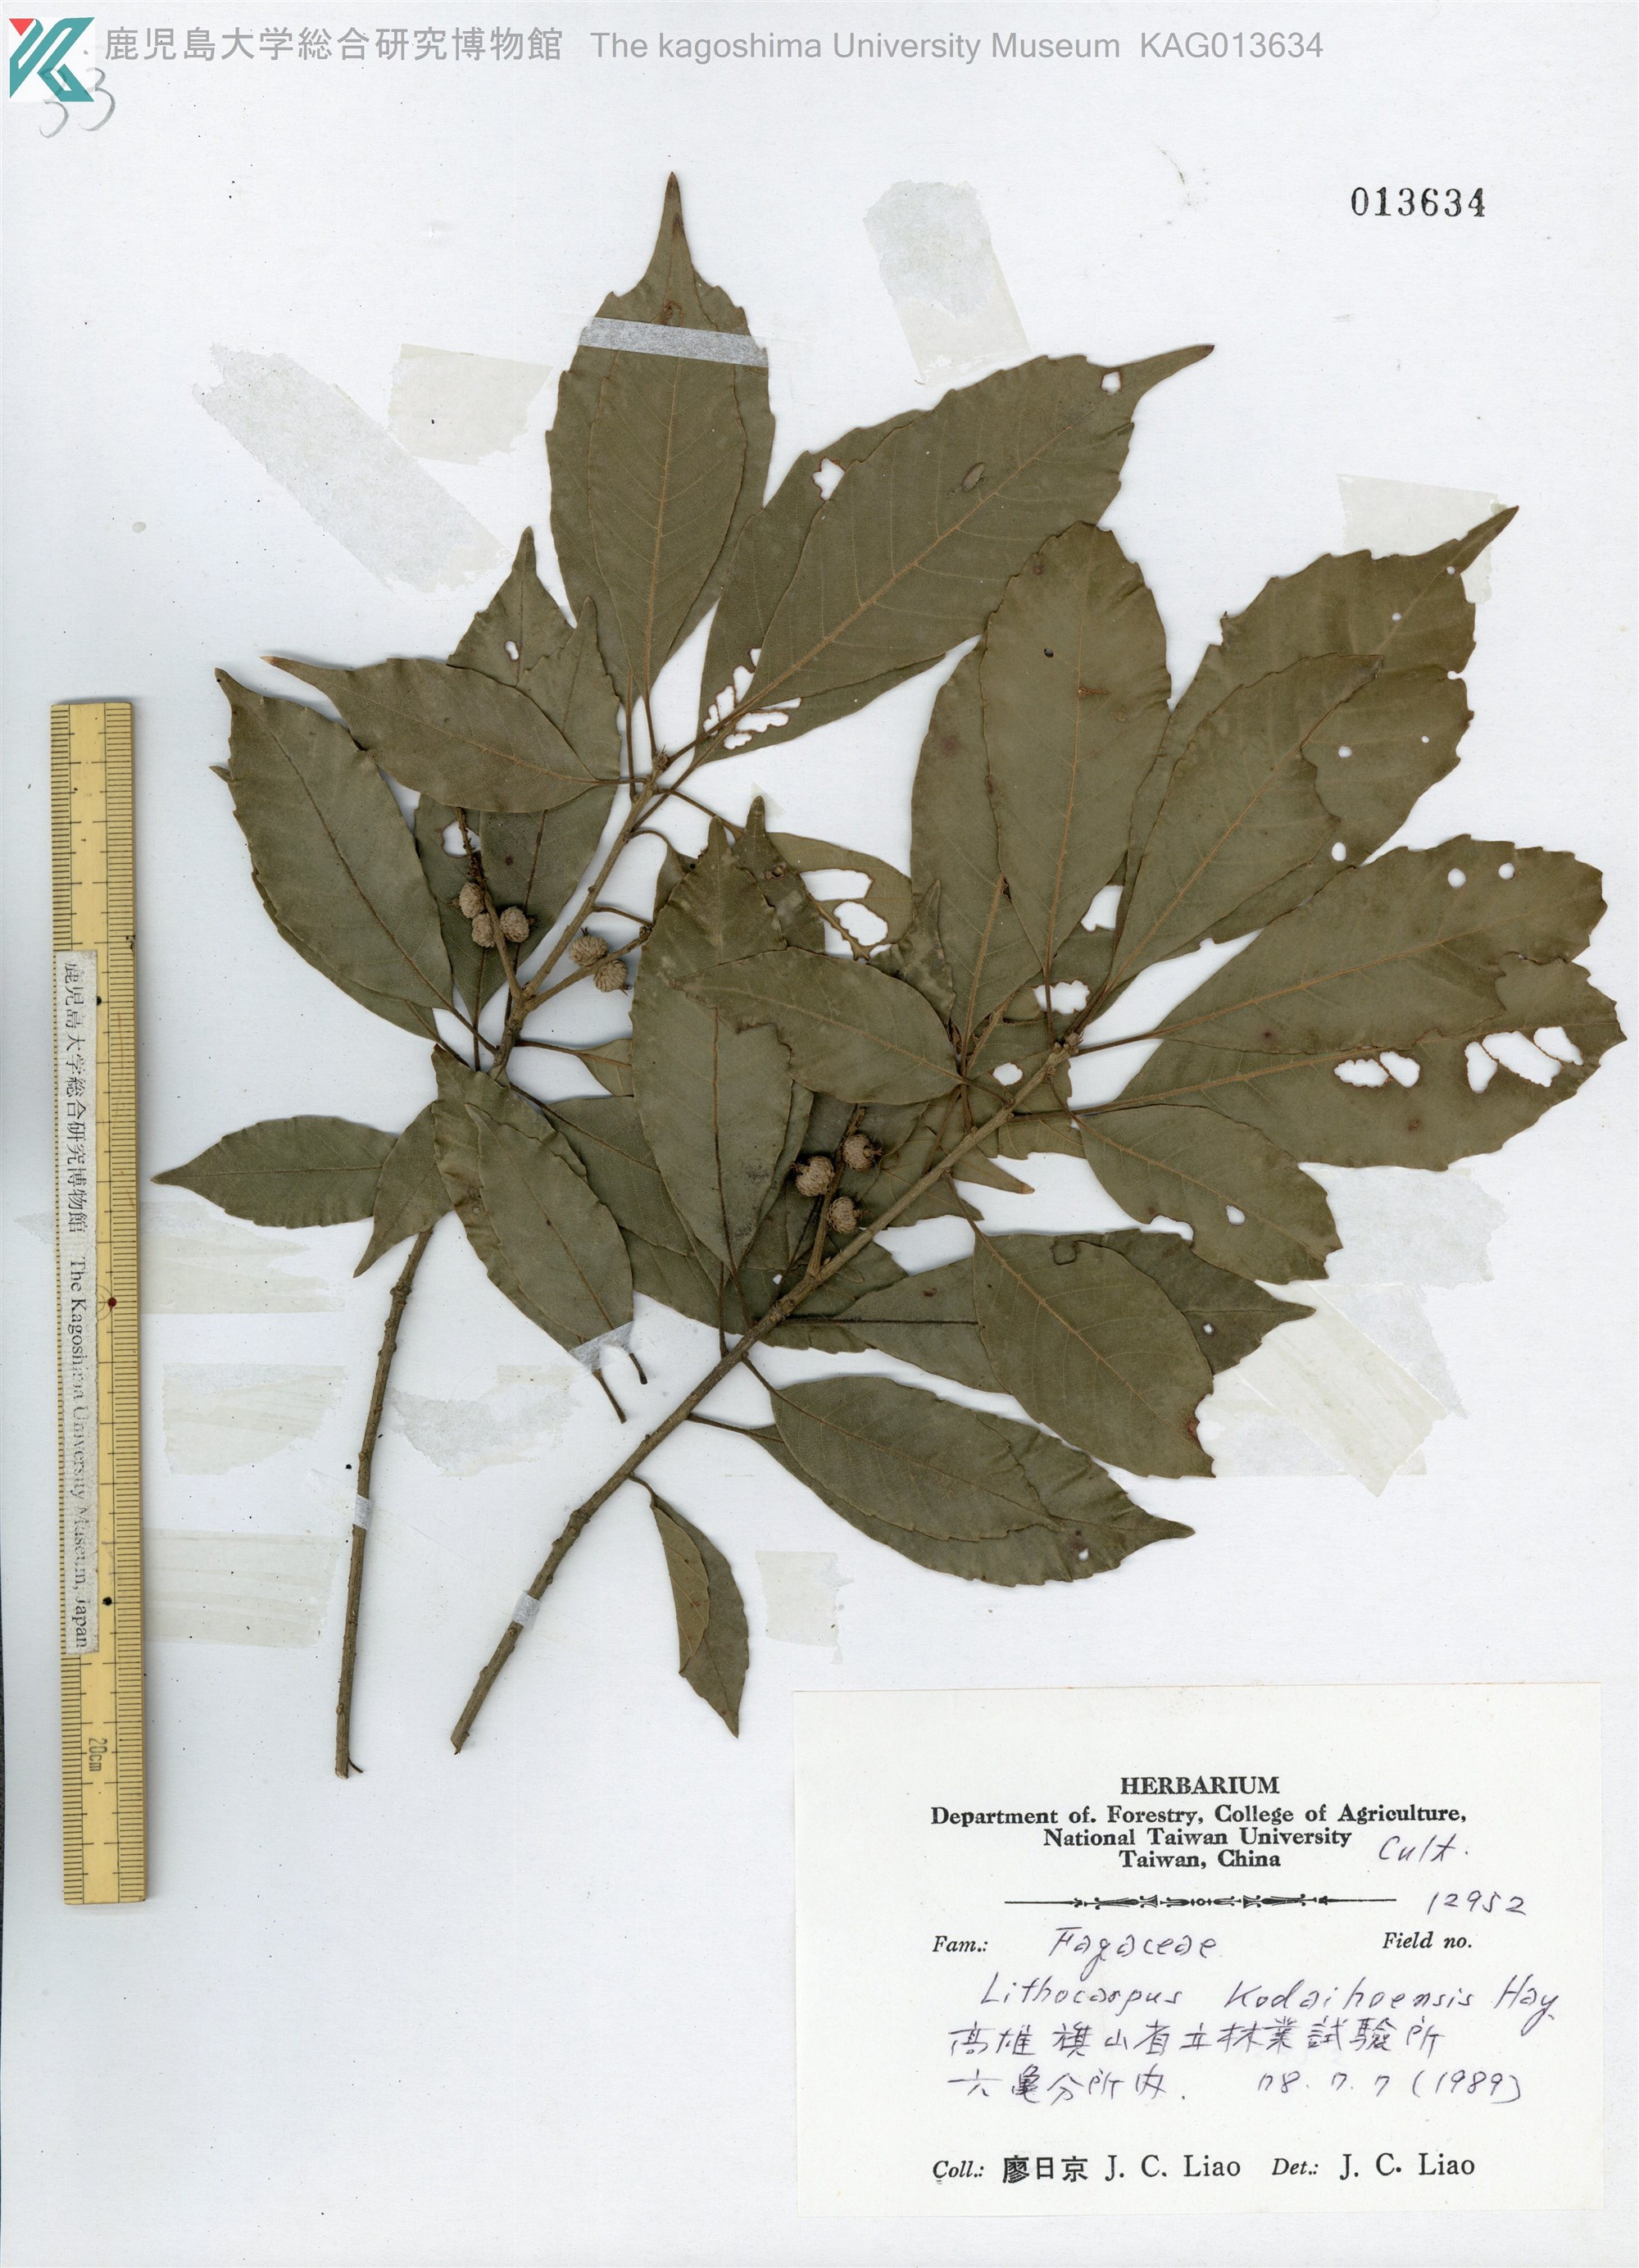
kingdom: Plantae
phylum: Tracheophyta
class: Magnoliopsida
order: Fagales
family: Fagaceae
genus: Lithocarpus
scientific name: Lithocarpus corneus
